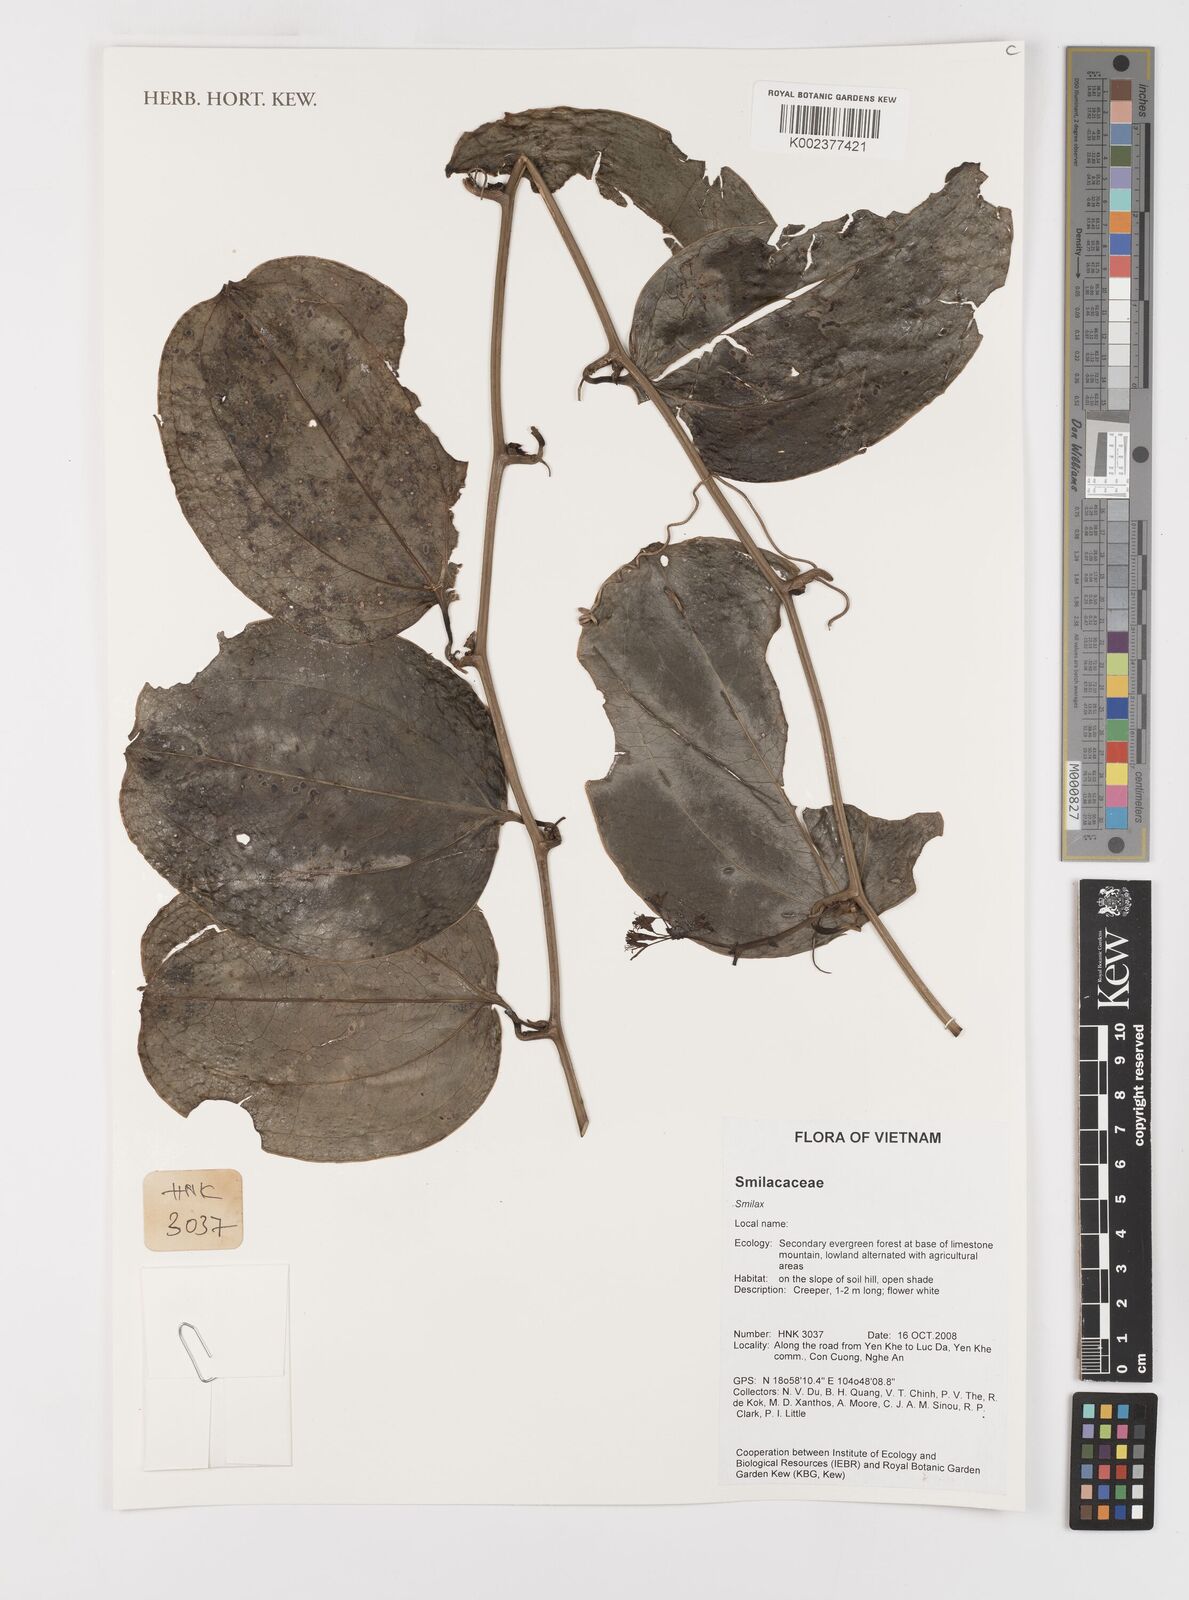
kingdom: Plantae
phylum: Tracheophyta
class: Liliopsida
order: Liliales
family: Smilacaceae
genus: Smilax
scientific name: Smilax
